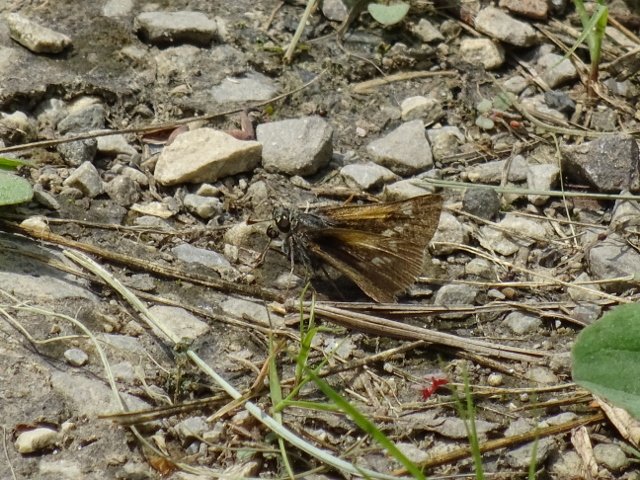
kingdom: Animalia
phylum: Arthropoda
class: Insecta
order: Lepidoptera
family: Hesperiidae
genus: Polites
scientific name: Polites themistocles
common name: Tawny-edged Skipper
